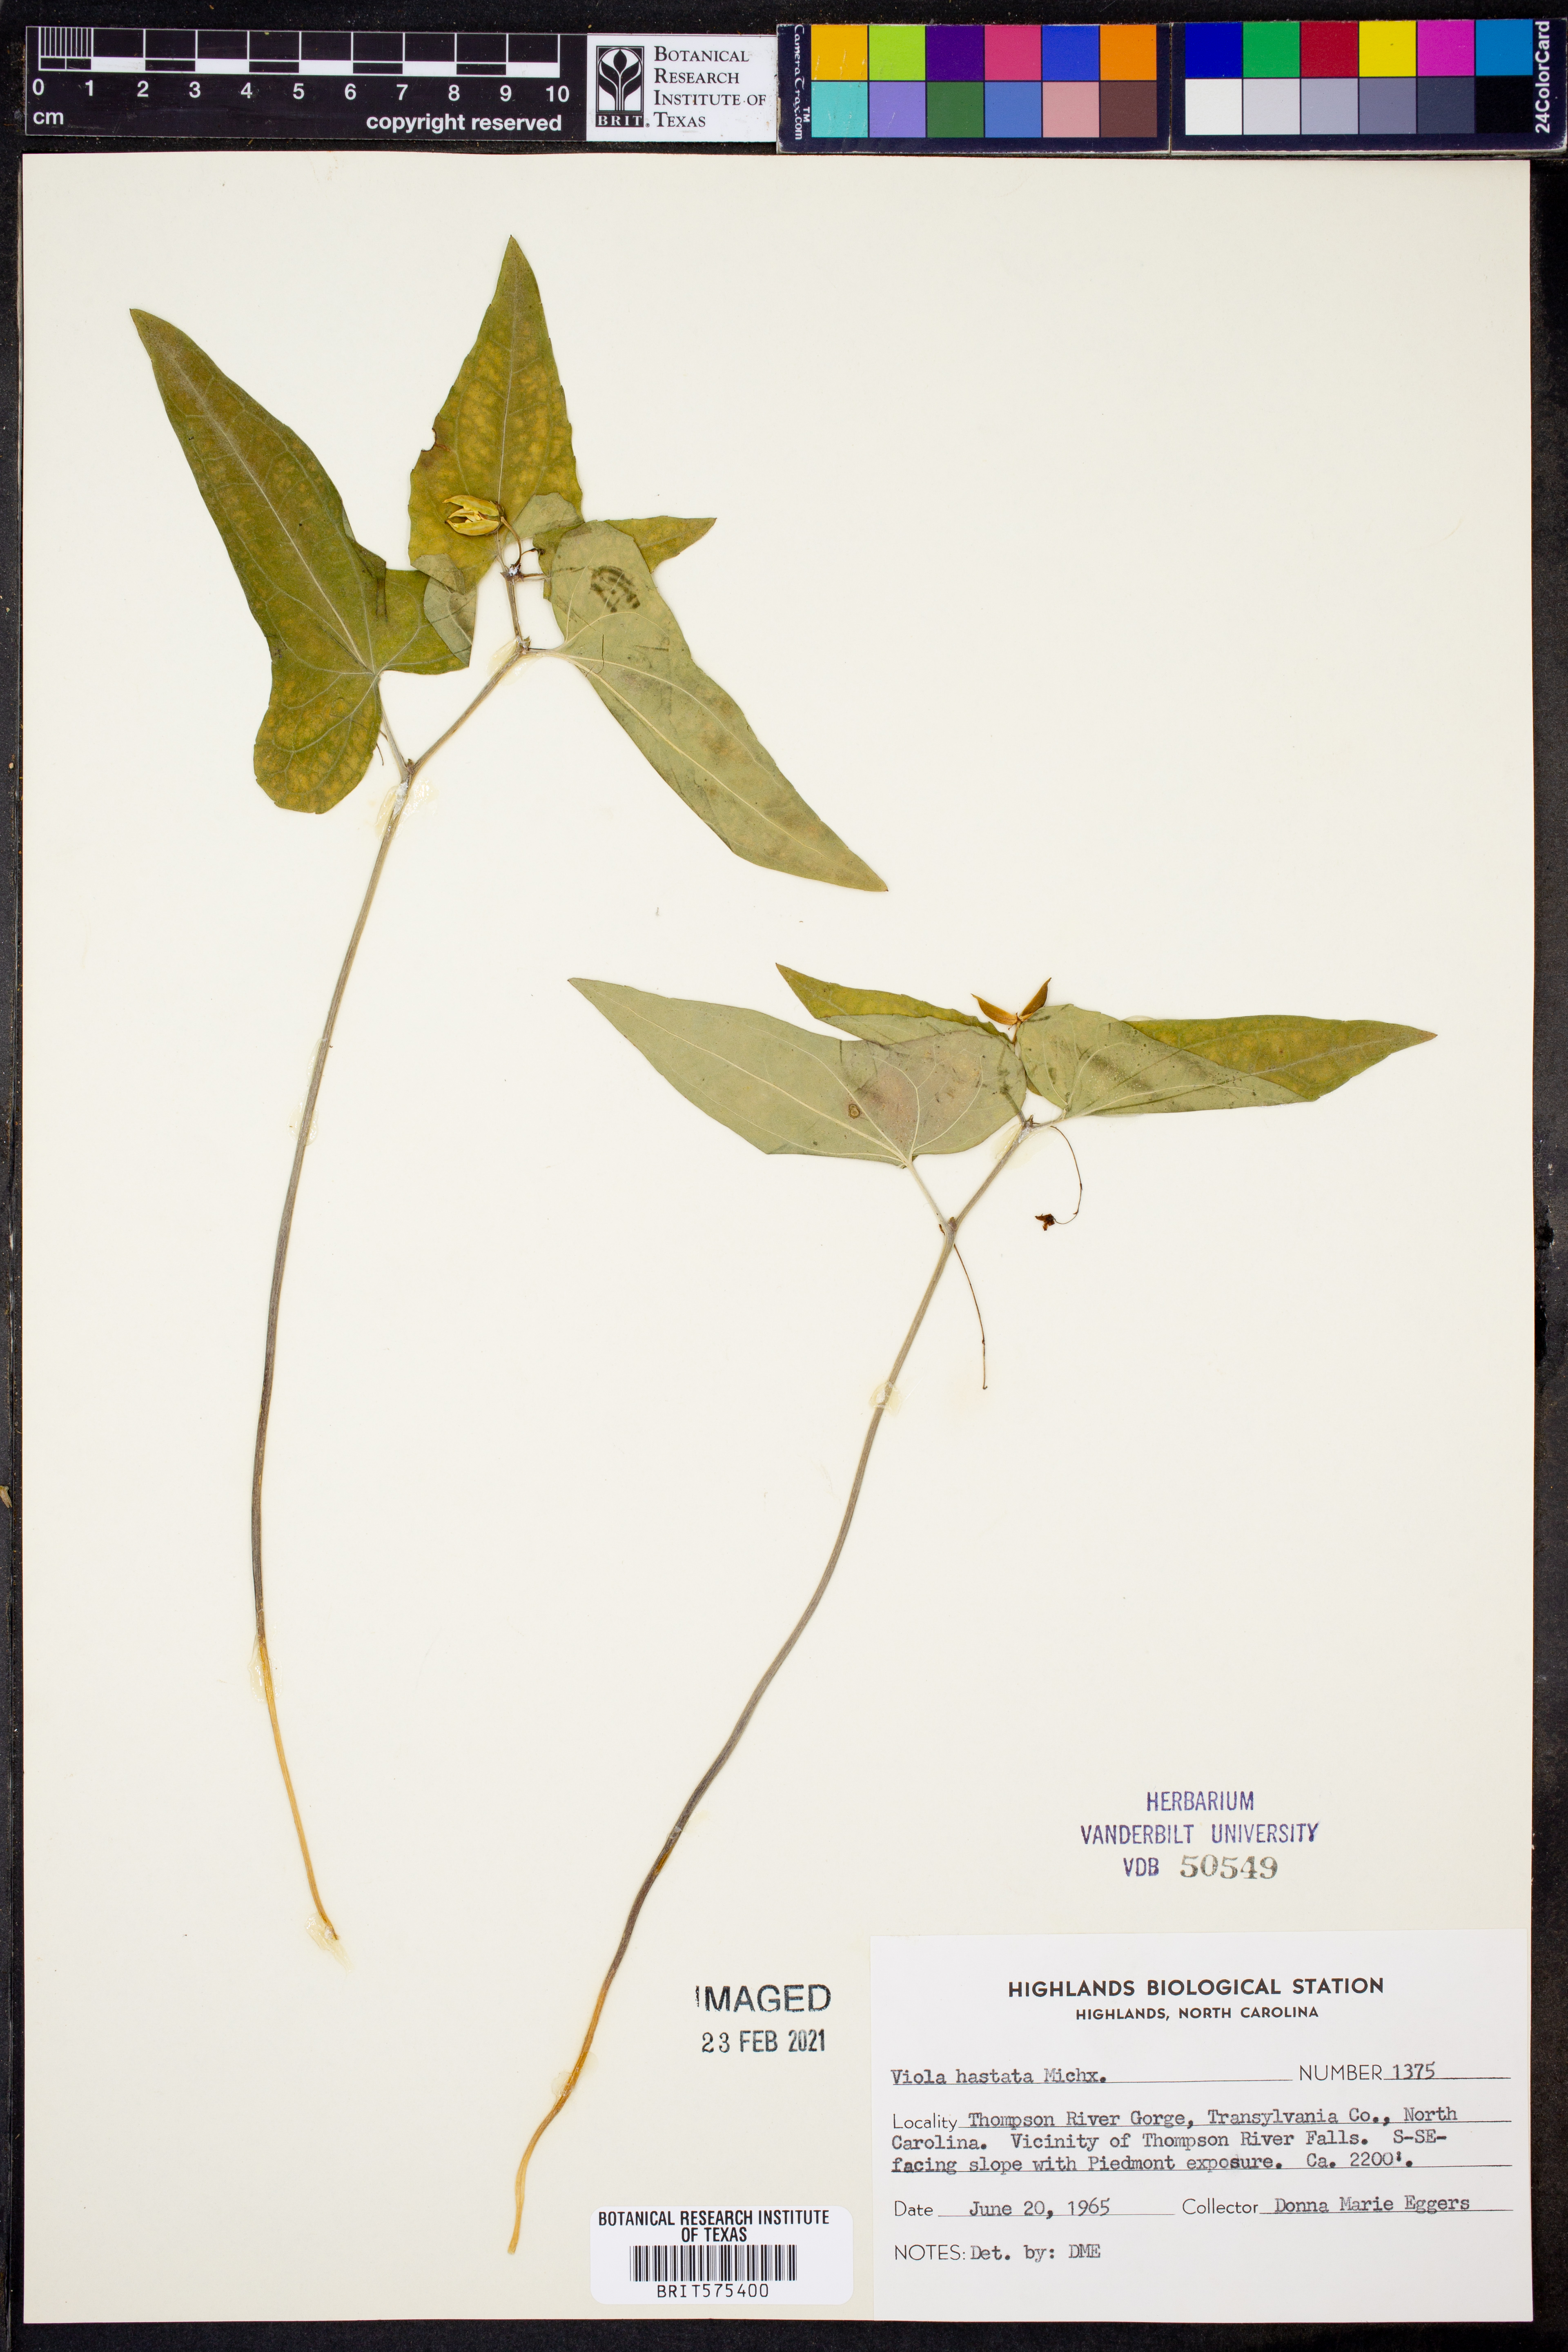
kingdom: Plantae
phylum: Tracheophyta
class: Magnoliopsida
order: Malpighiales
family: Violaceae
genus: Viola
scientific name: Viola hastata
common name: Spear-leaf violet
